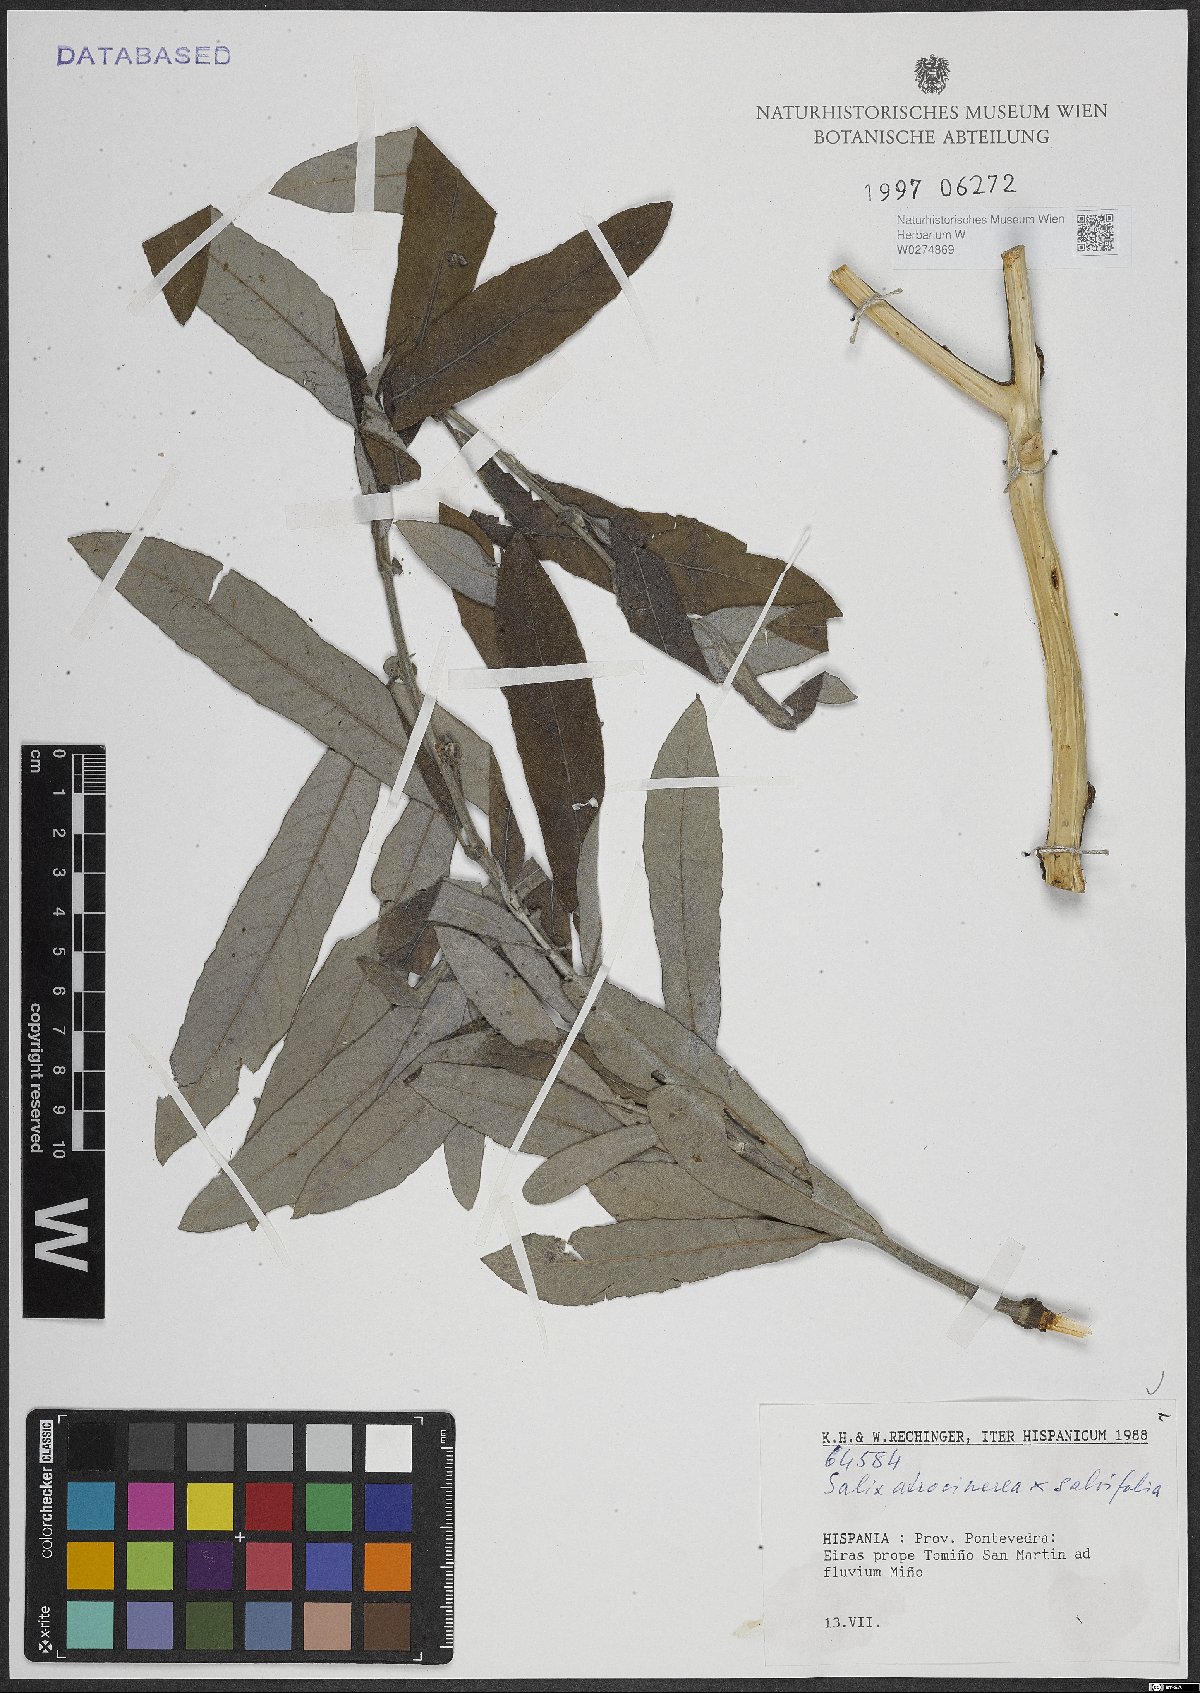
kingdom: Plantae
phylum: Tracheophyta
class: Magnoliopsida
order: Malpighiales
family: Salicaceae
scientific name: Salicaceae
